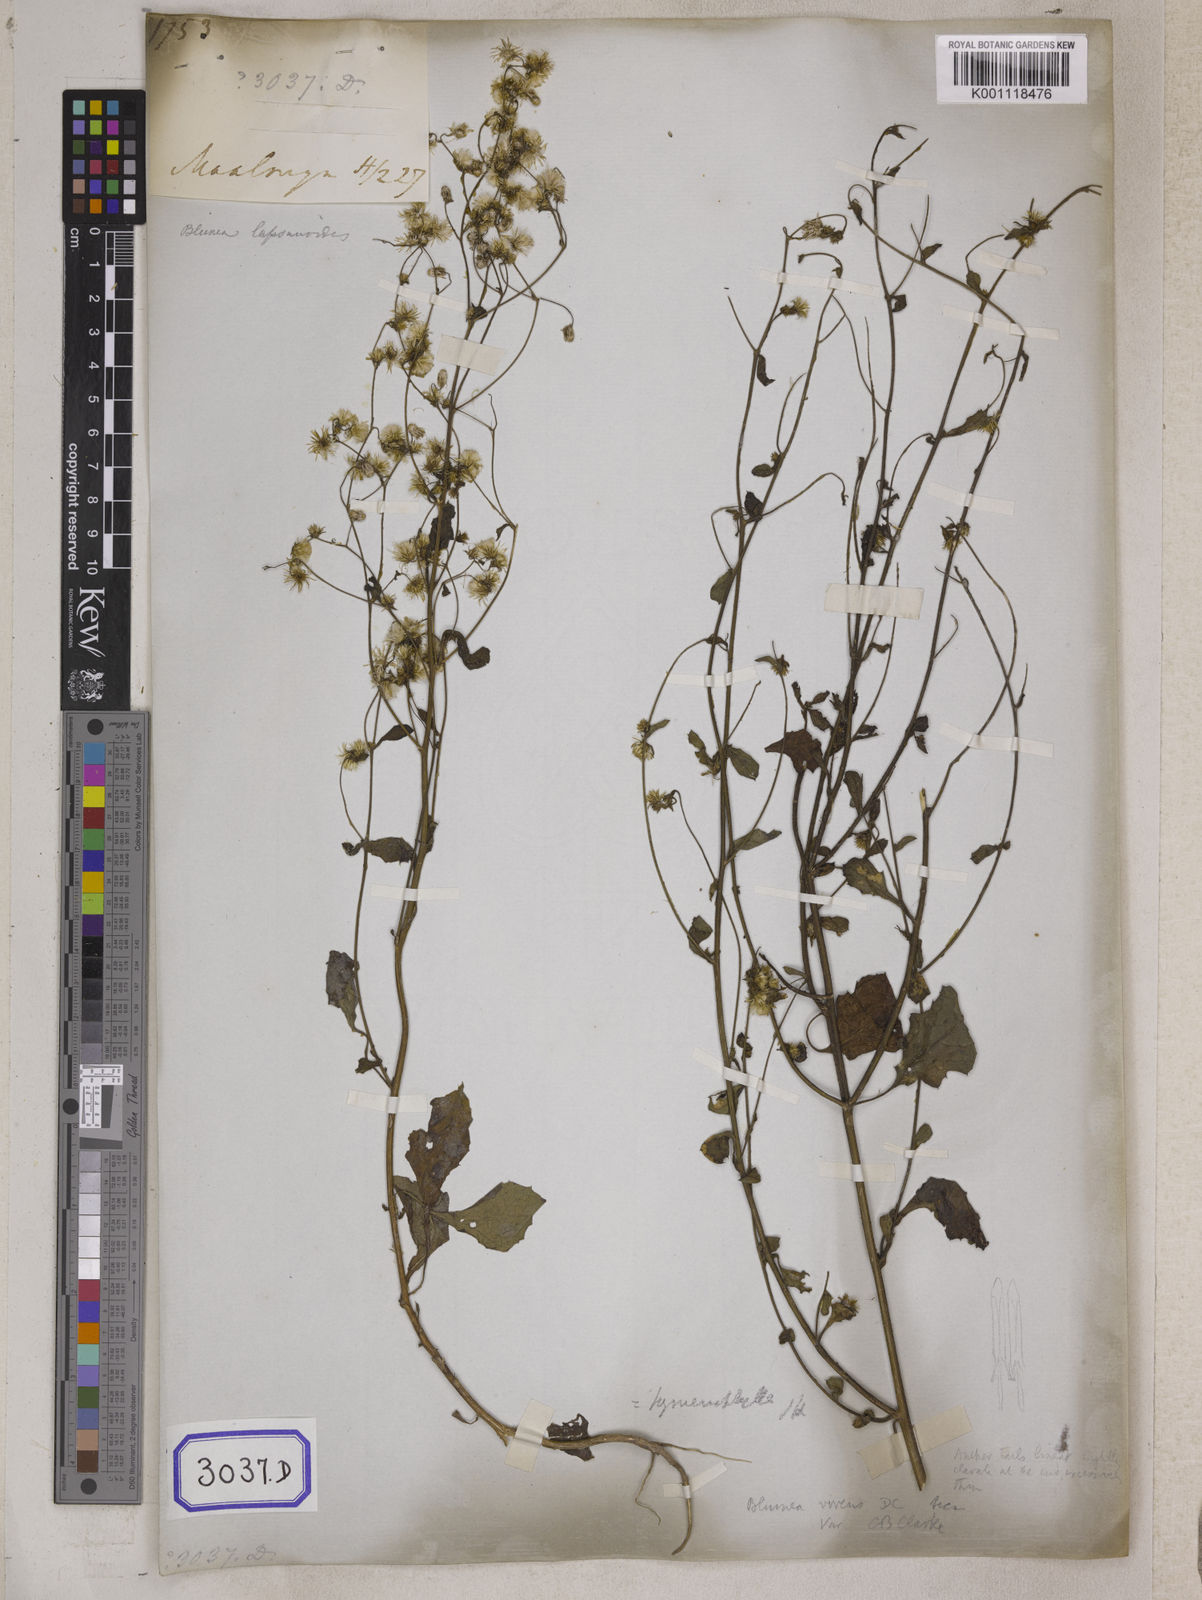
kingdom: Plantae
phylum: Tracheophyta
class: Magnoliopsida
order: Asterales
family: Asteraceae
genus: Blumea
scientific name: Blumea virens
